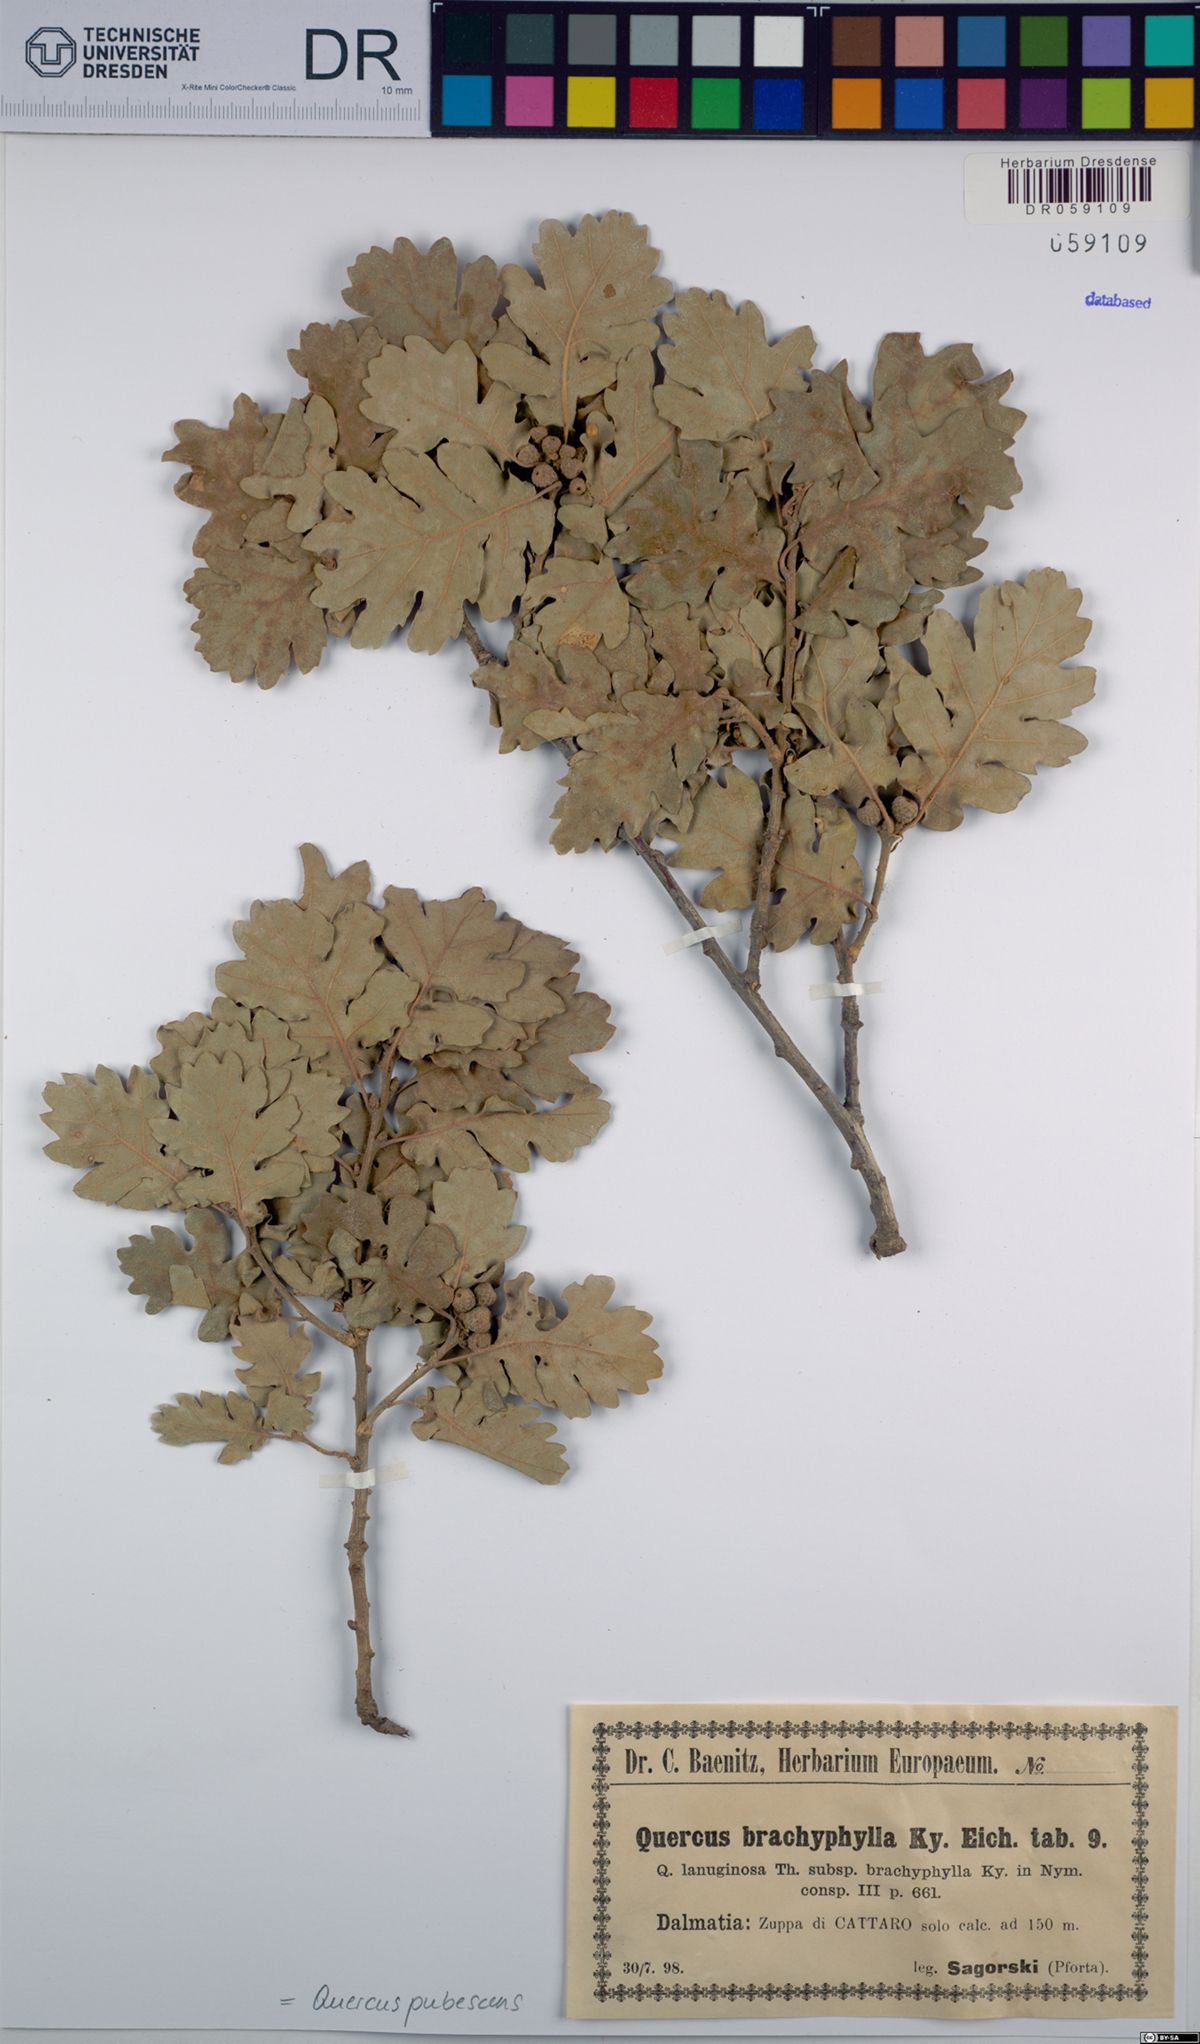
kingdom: Plantae
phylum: Tracheophyta
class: Magnoliopsida
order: Fagales
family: Fagaceae
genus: Quercus
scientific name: Quercus pubescens
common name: Downy oak
